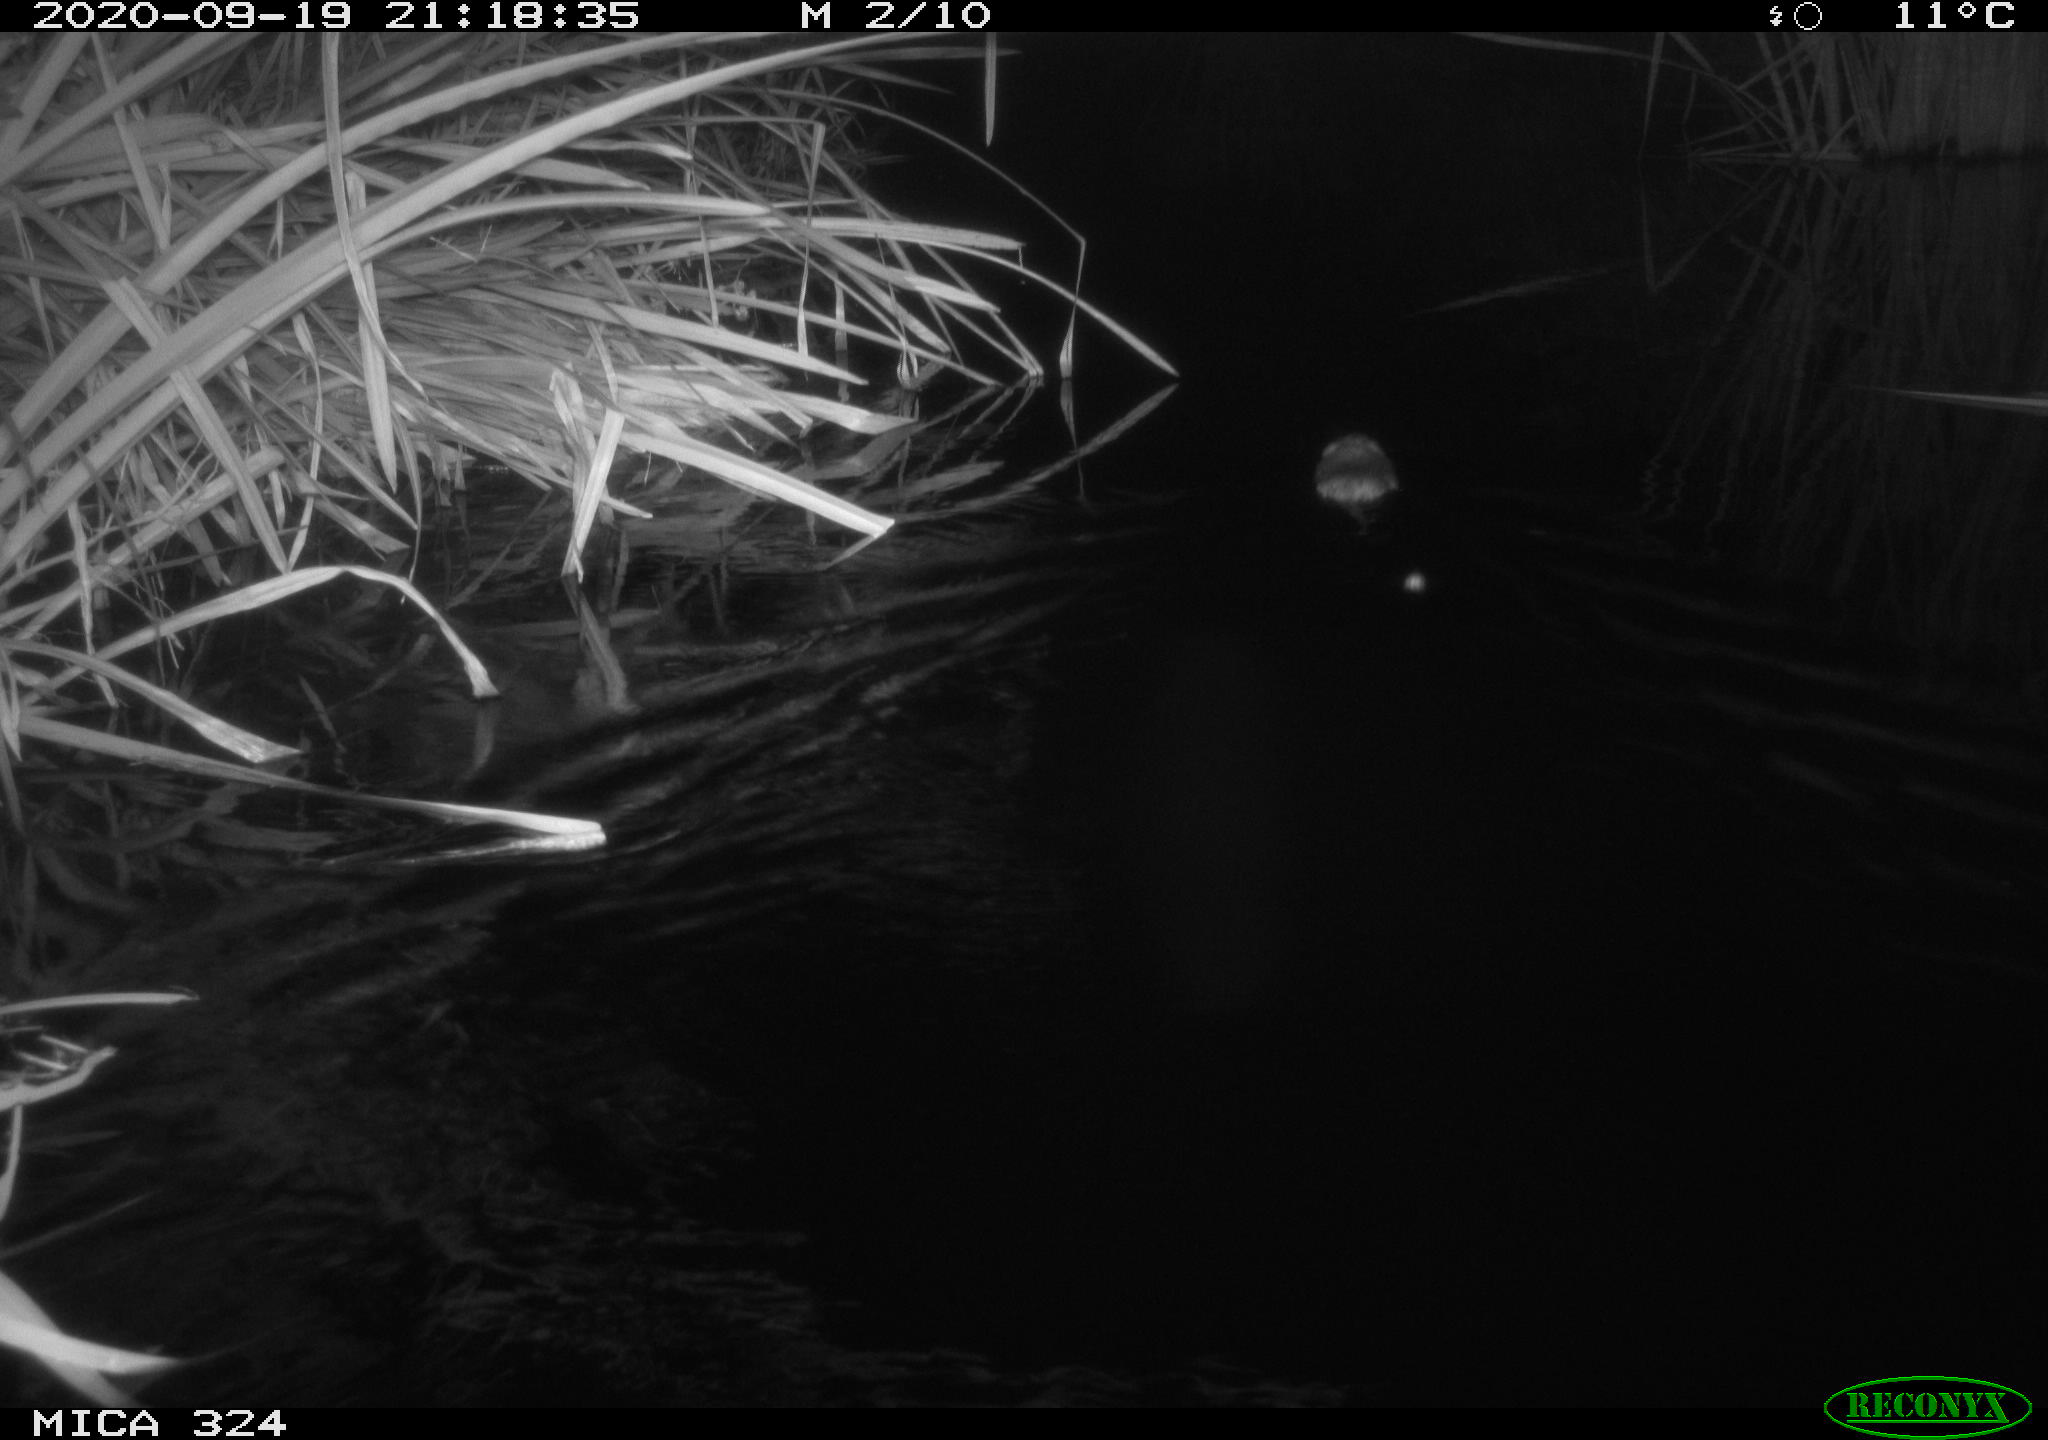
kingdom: Animalia
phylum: Chordata
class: Mammalia
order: Rodentia
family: Cricetidae
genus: Ondatra
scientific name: Ondatra zibethicus
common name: Muskrat
